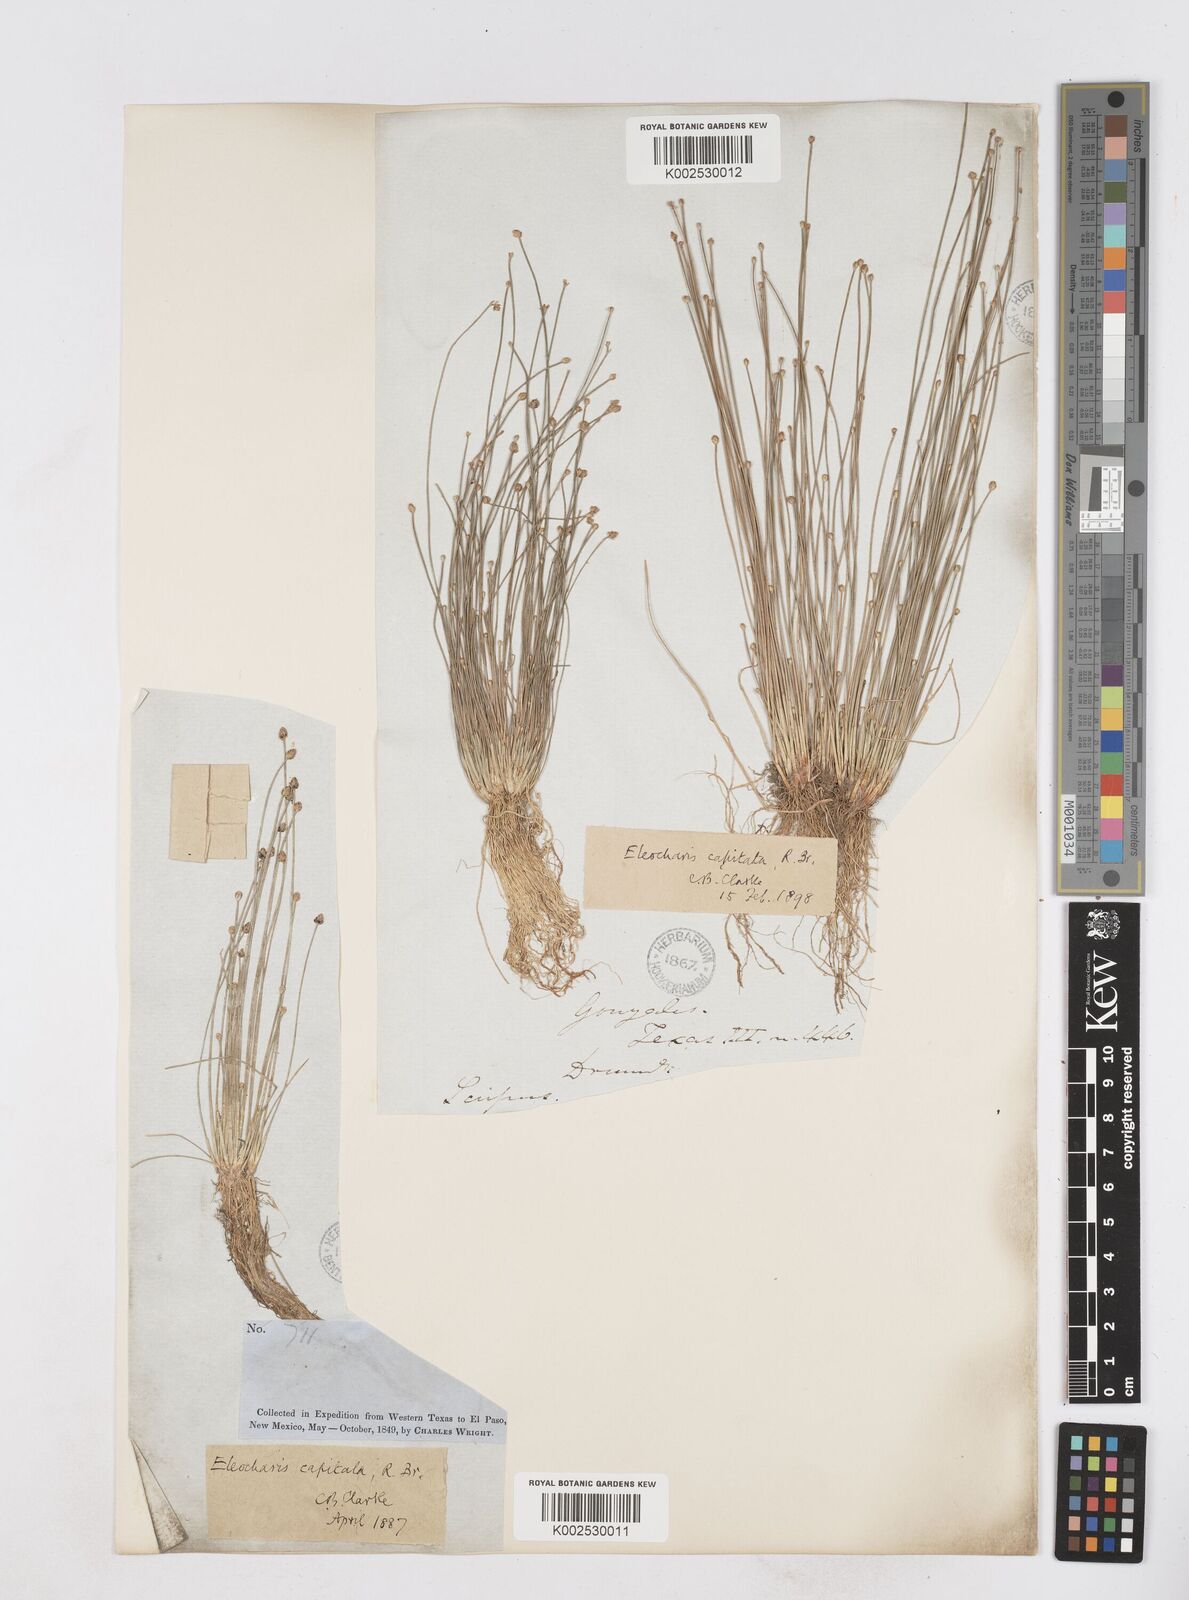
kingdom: Plantae
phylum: Tracheophyta
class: Liliopsida
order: Poales
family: Cyperaceae
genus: Eleocharis
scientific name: Eleocharis geniculata
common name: Canada spikesedge
